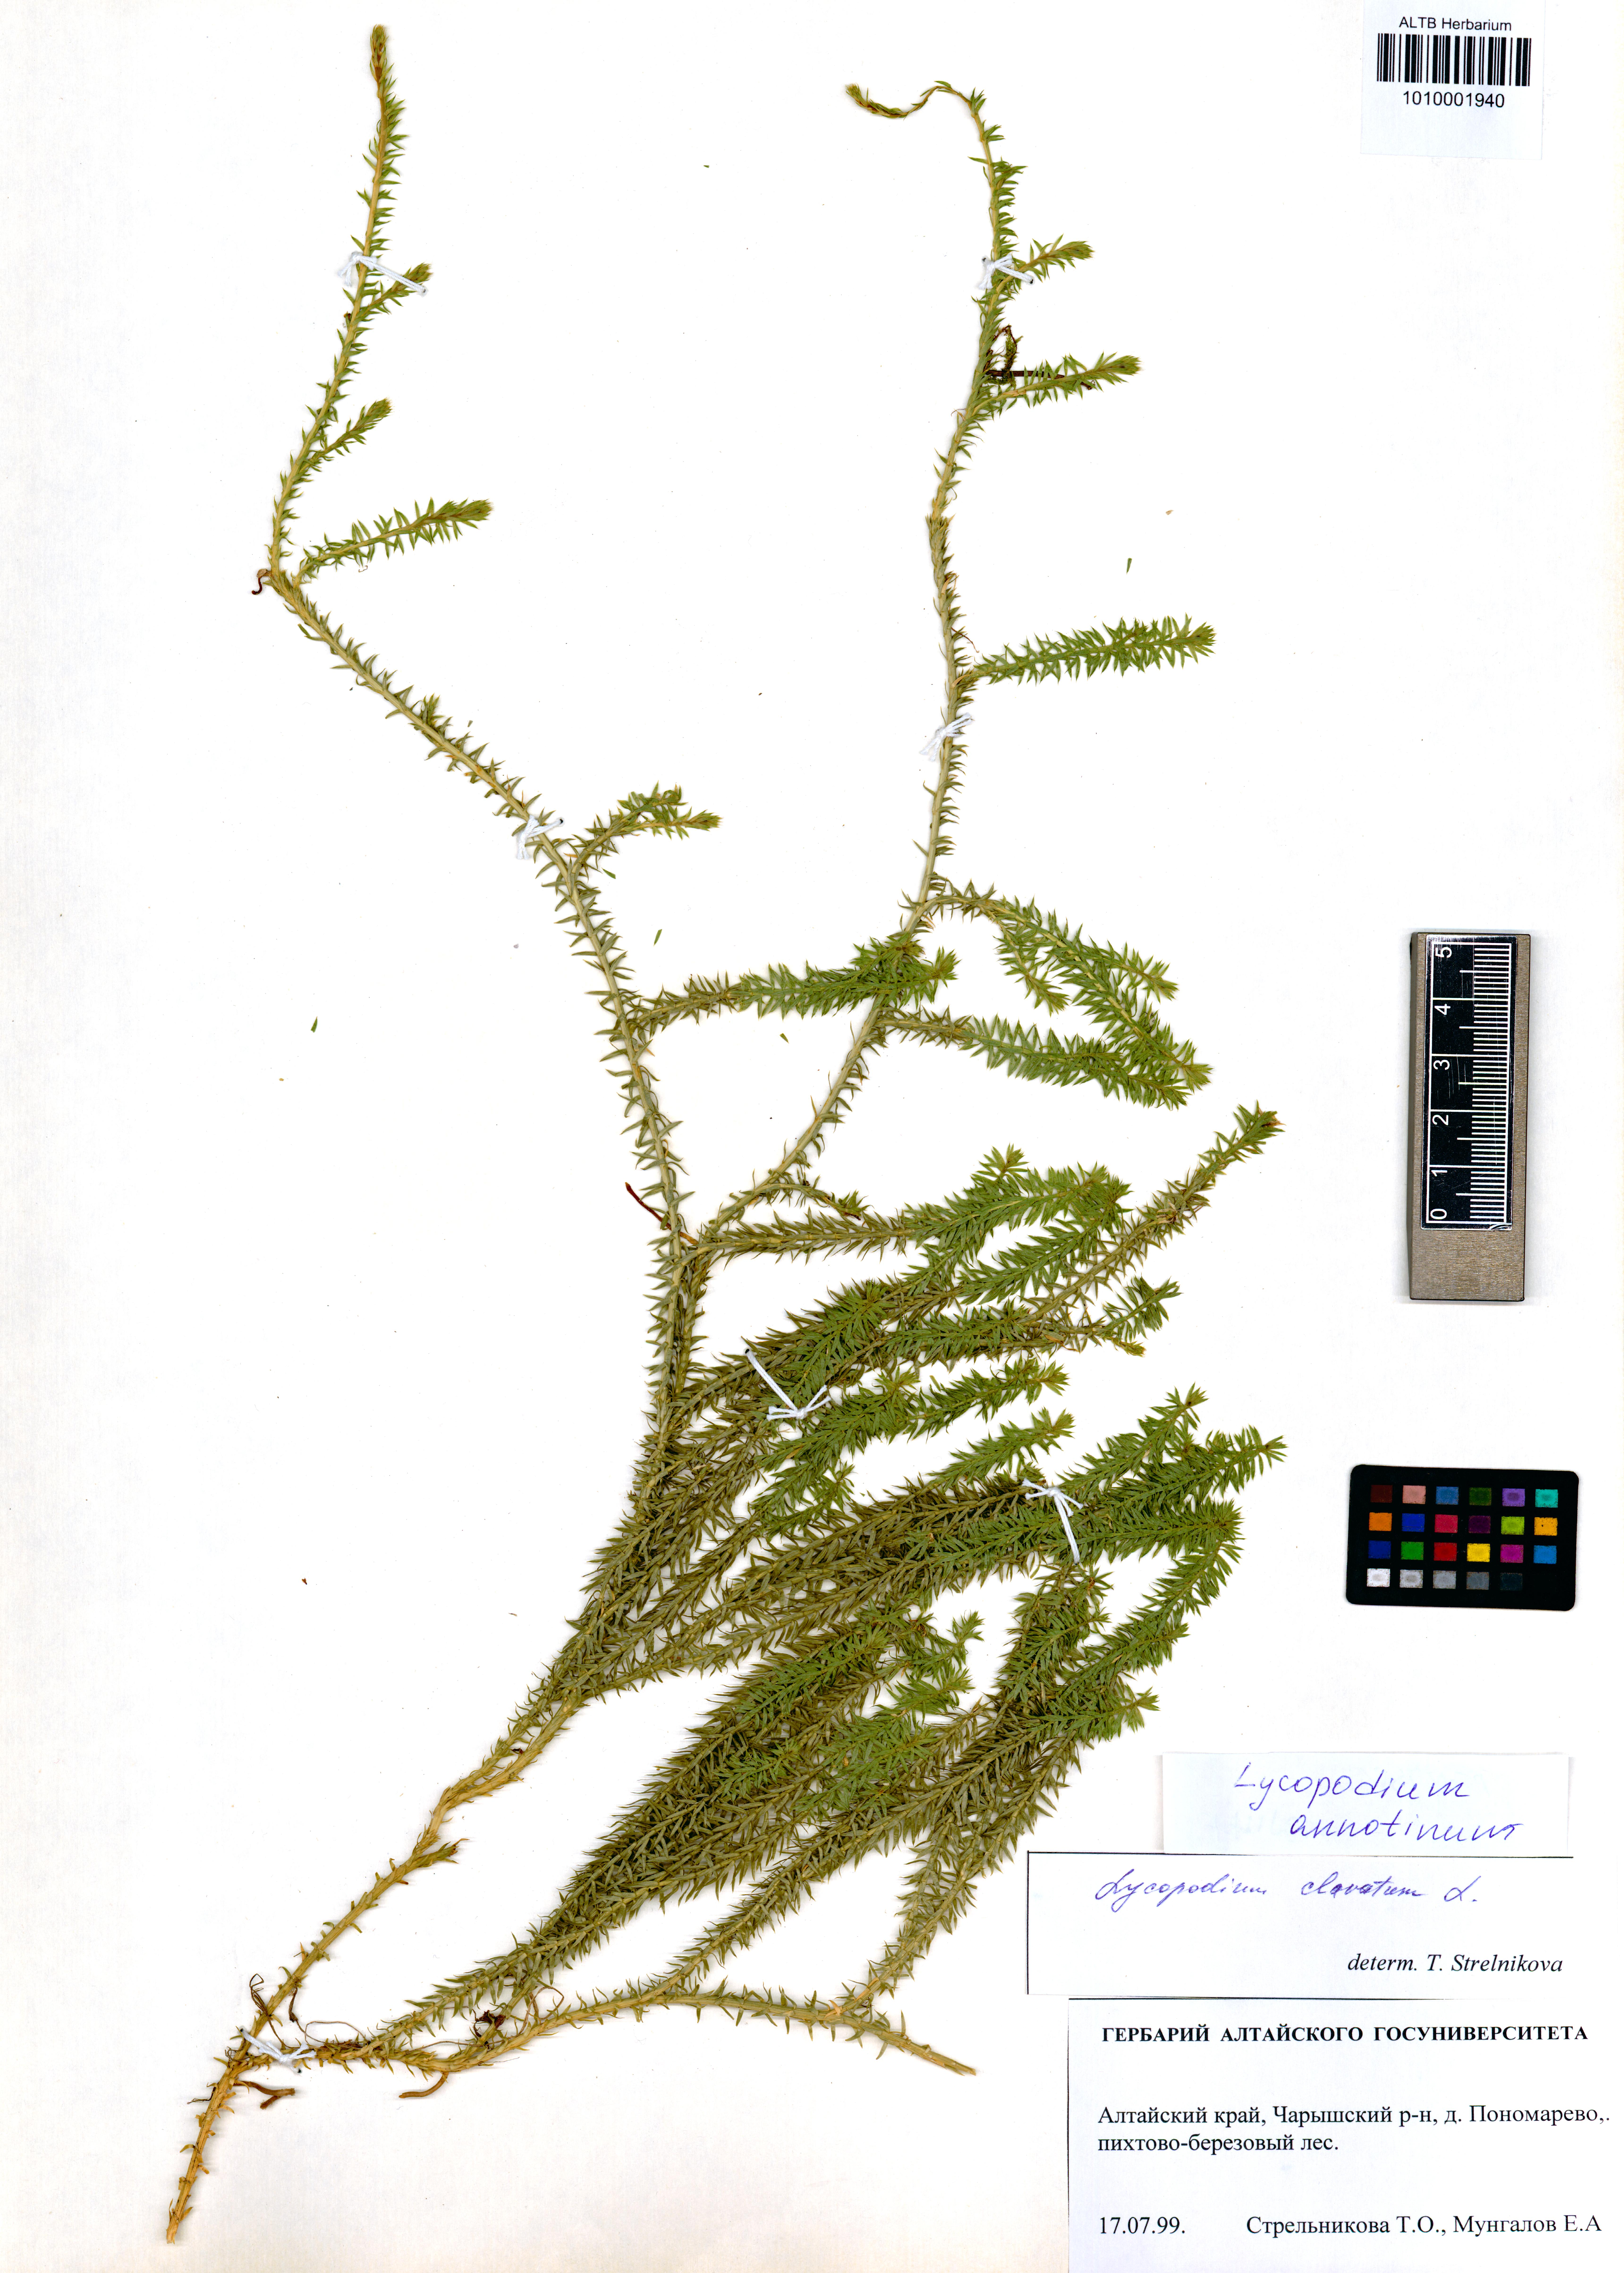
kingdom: Plantae
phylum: Tracheophyta
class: Lycopodiopsida
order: Lycopodiales
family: Lycopodiaceae
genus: Spinulum
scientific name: Spinulum annotinum
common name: Interrupted club-moss
